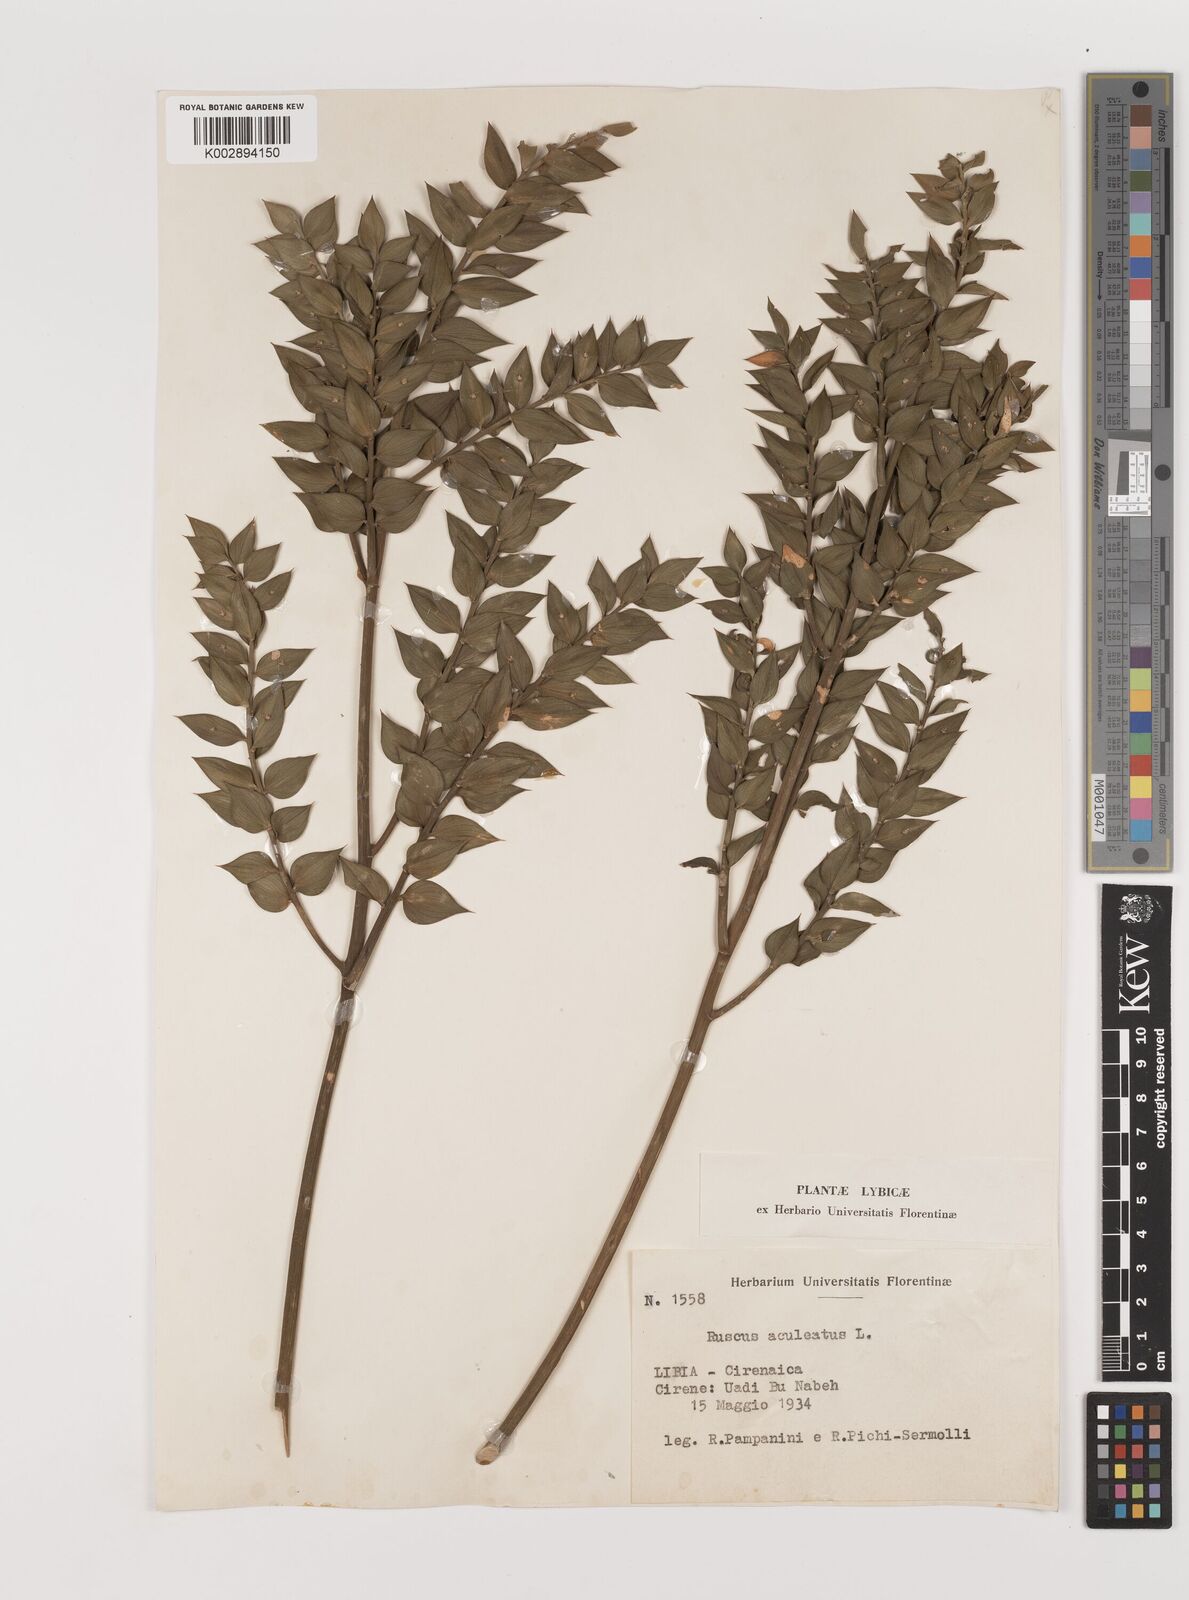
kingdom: Plantae
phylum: Tracheophyta
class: Liliopsida
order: Asparagales
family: Asparagaceae
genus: Ruscus
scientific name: Ruscus aculeatus
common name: Butcher's-broom
